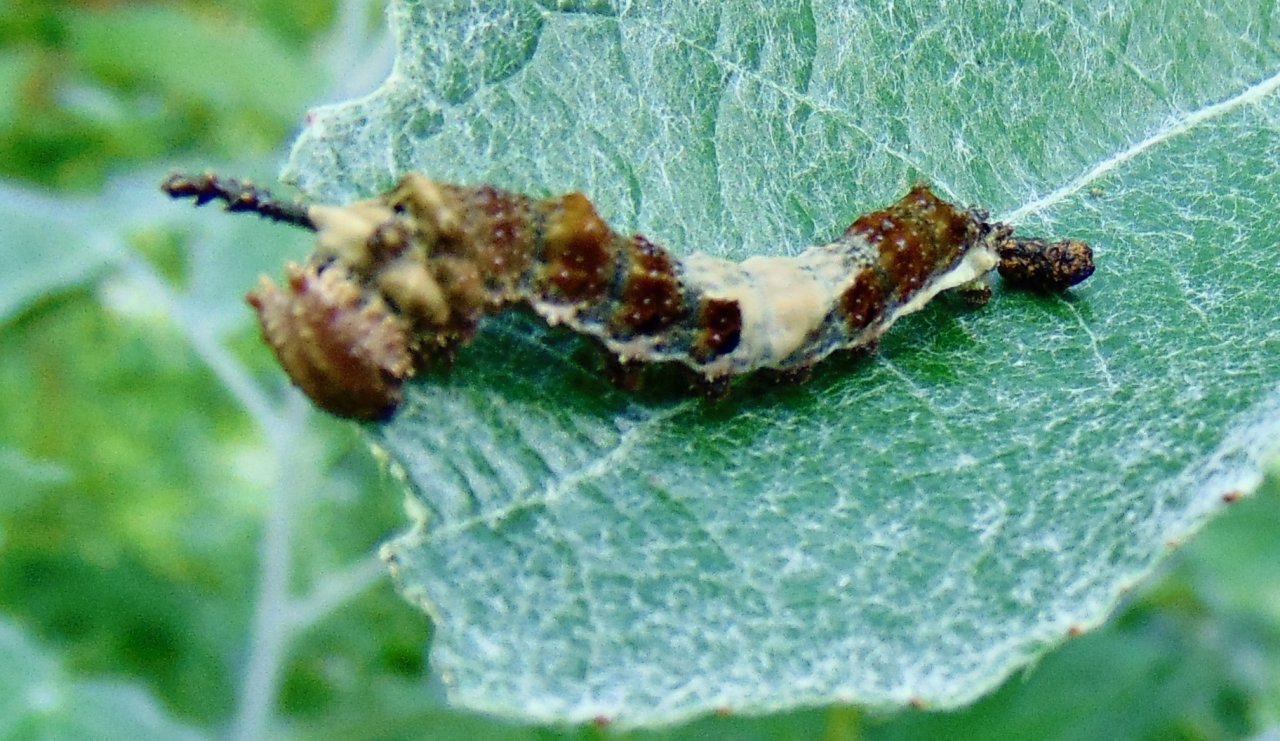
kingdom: Animalia
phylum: Arthropoda
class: Insecta
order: Lepidoptera
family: Nymphalidae
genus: Limenitis
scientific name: Limenitis archippus
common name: Viceroy
